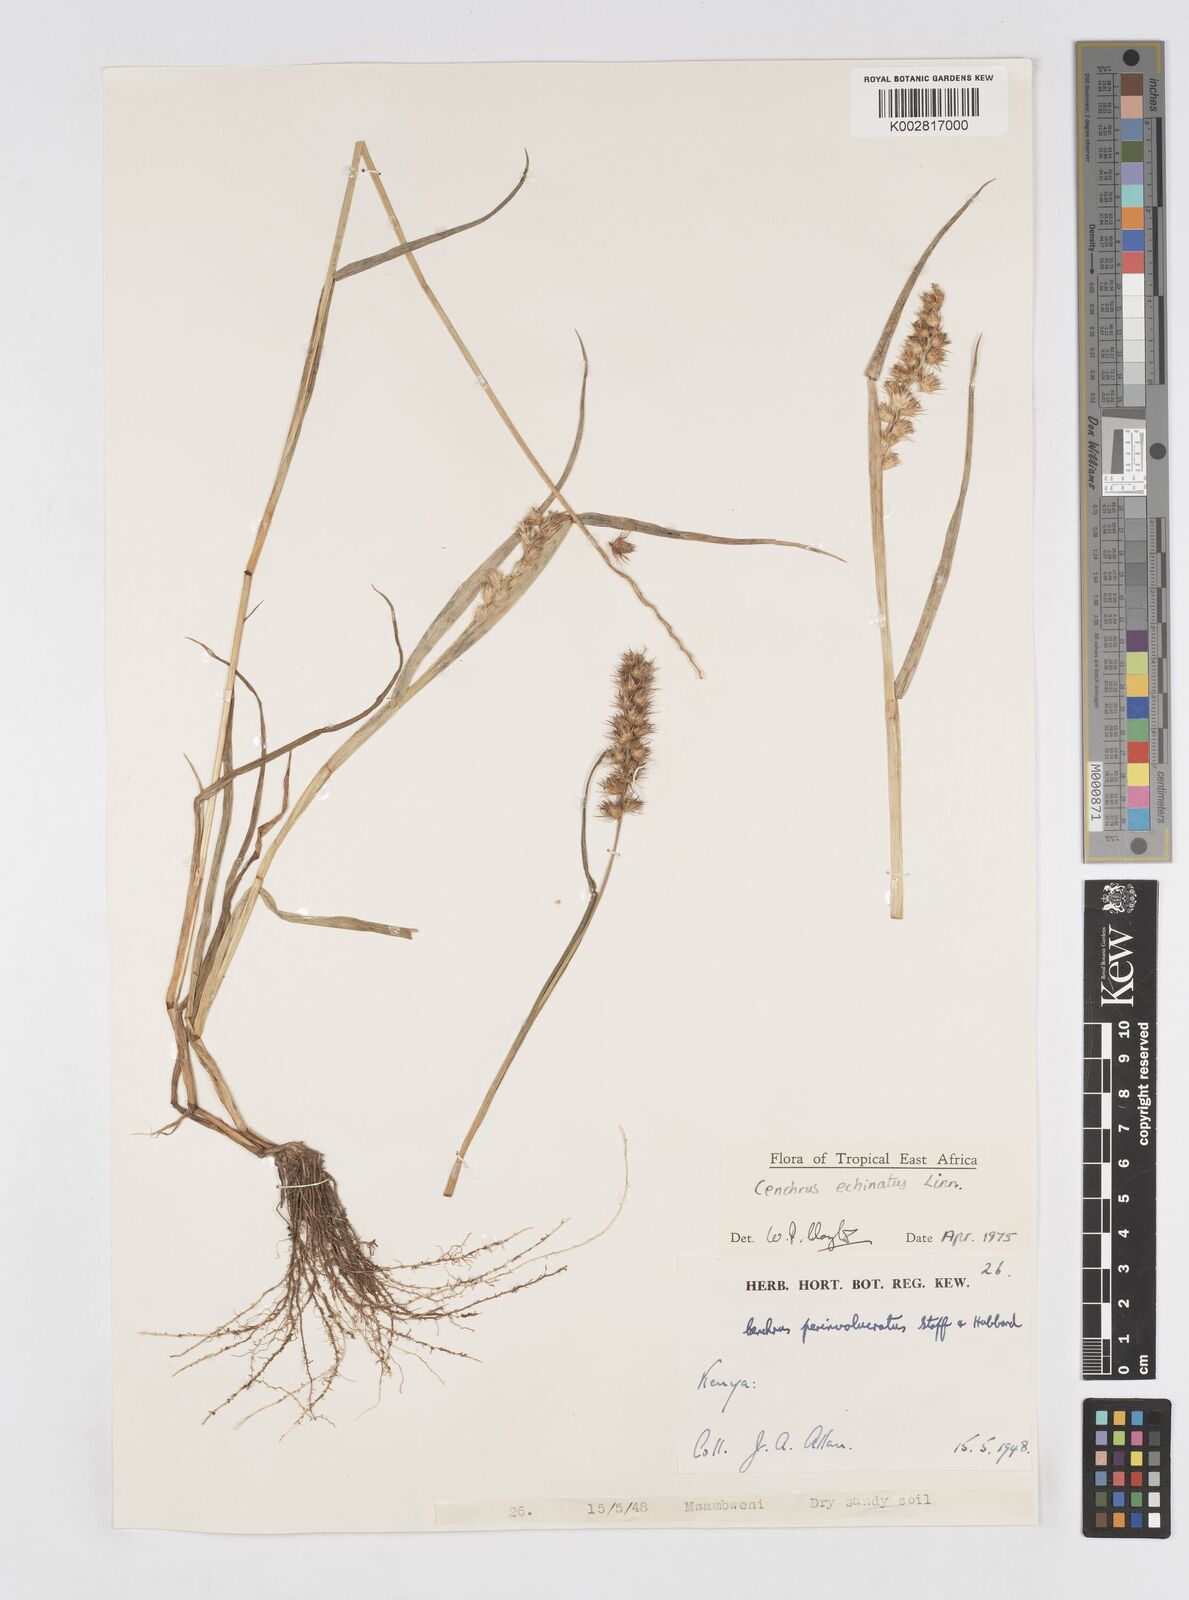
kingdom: Plantae
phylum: Tracheophyta
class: Liliopsida
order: Poales
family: Poaceae
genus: Cenchrus
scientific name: Cenchrus echinatus
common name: Southern sandbur
